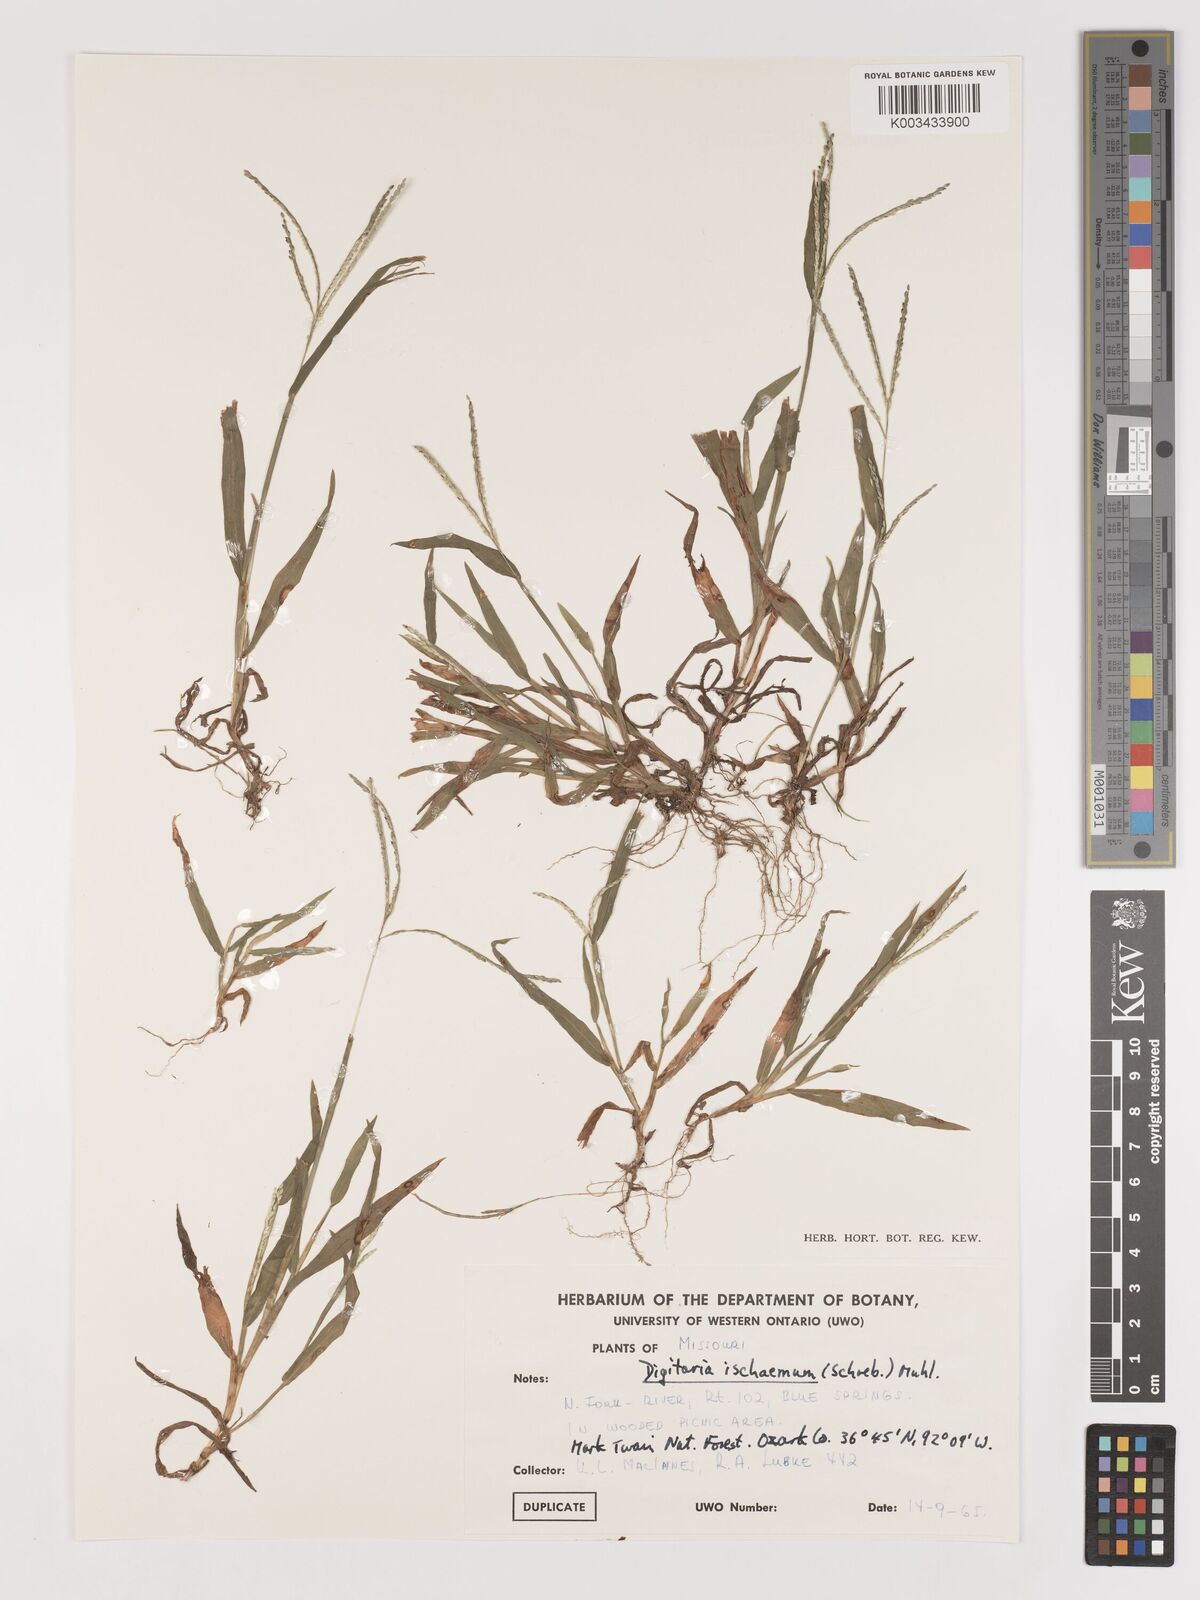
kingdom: Plantae
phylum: Tracheophyta
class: Liliopsida
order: Poales
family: Poaceae
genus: Digitaria
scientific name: Digitaria ischaemum
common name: Smooth crabgrass
